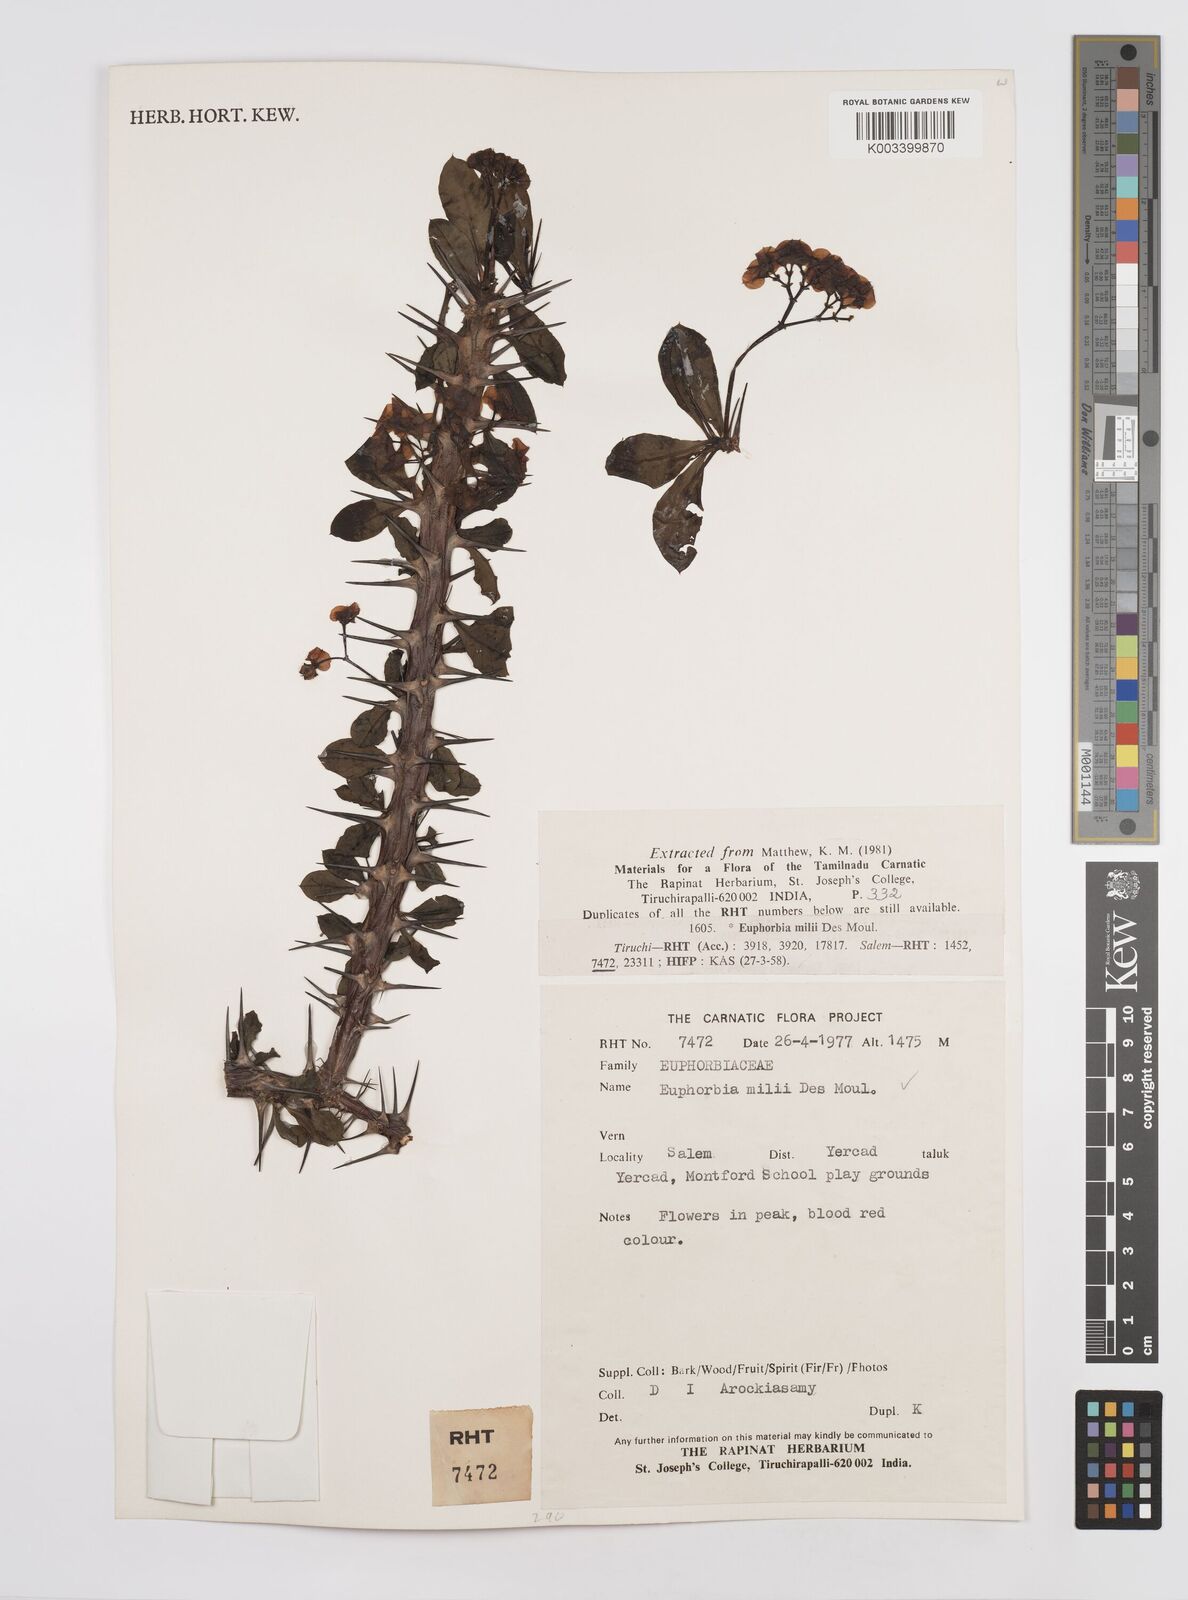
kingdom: Plantae
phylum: Tracheophyta
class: Magnoliopsida
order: Malpighiales
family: Euphorbiaceae
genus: Euphorbia
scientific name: Euphorbia milii
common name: Christplant
